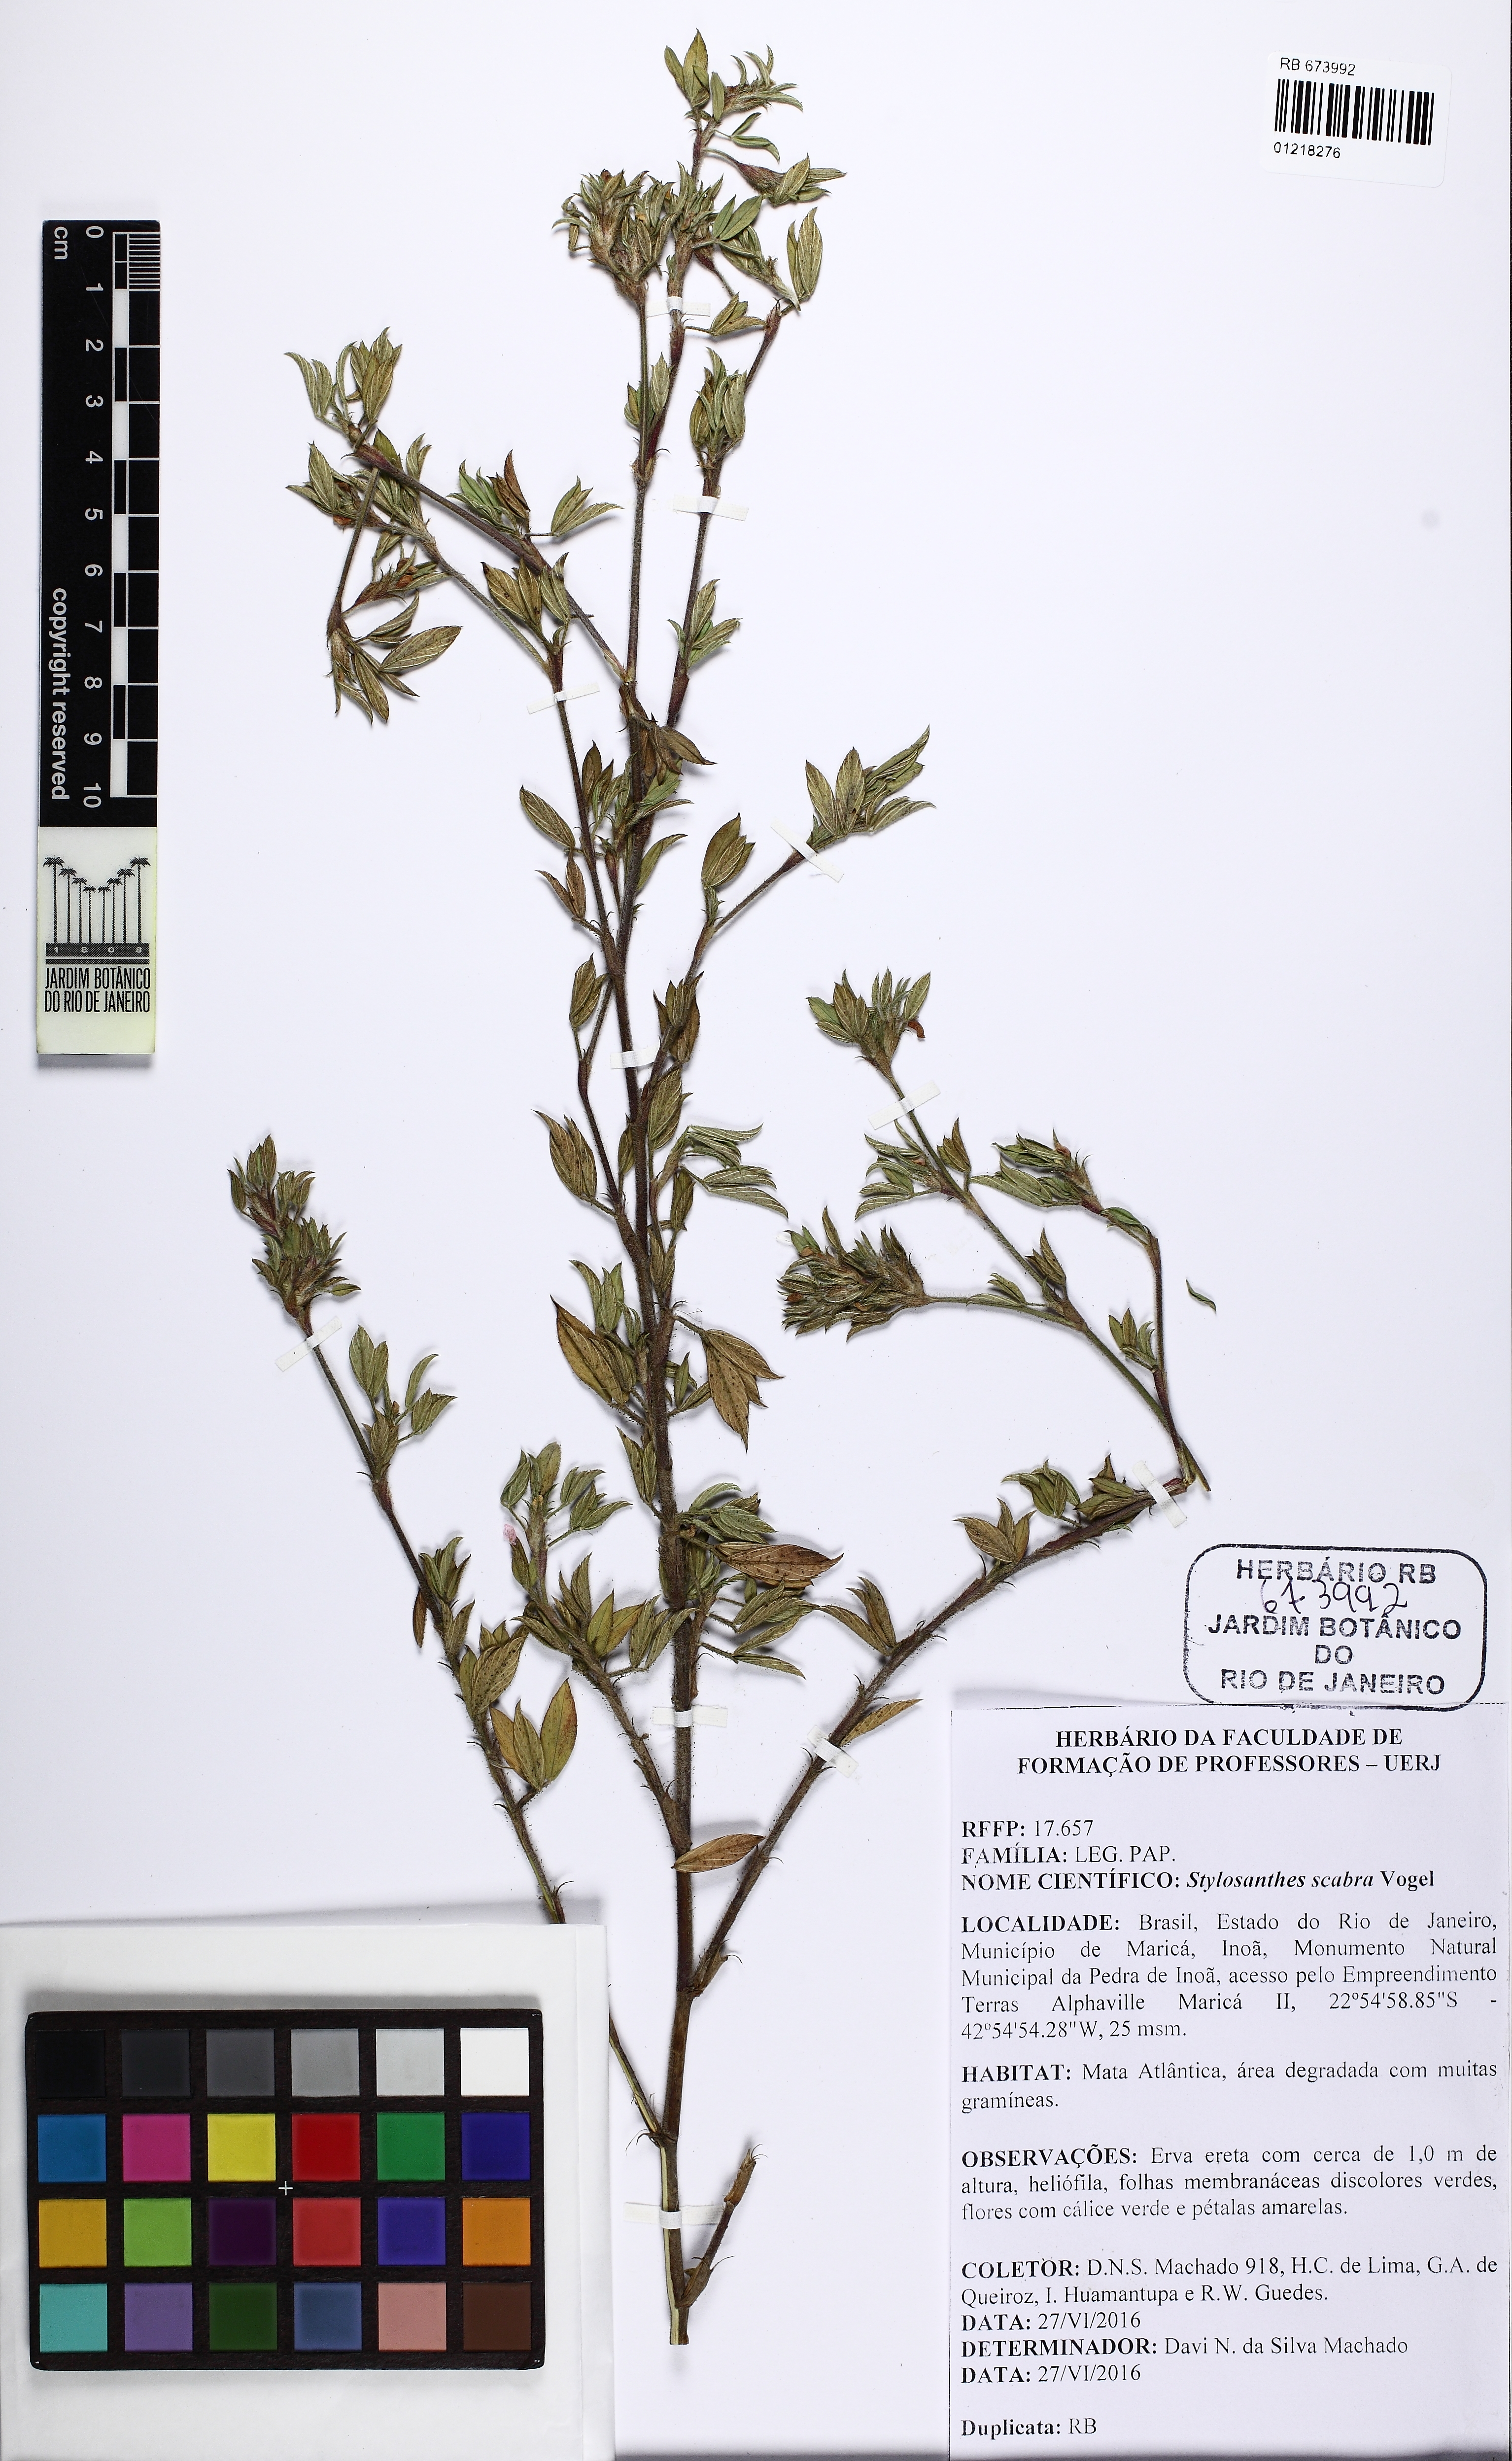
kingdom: Plantae
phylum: Tracheophyta
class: Magnoliopsida
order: Fabales
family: Fabaceae
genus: Stylosanthes
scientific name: Stylosanthes scabra
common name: Pencilflower
